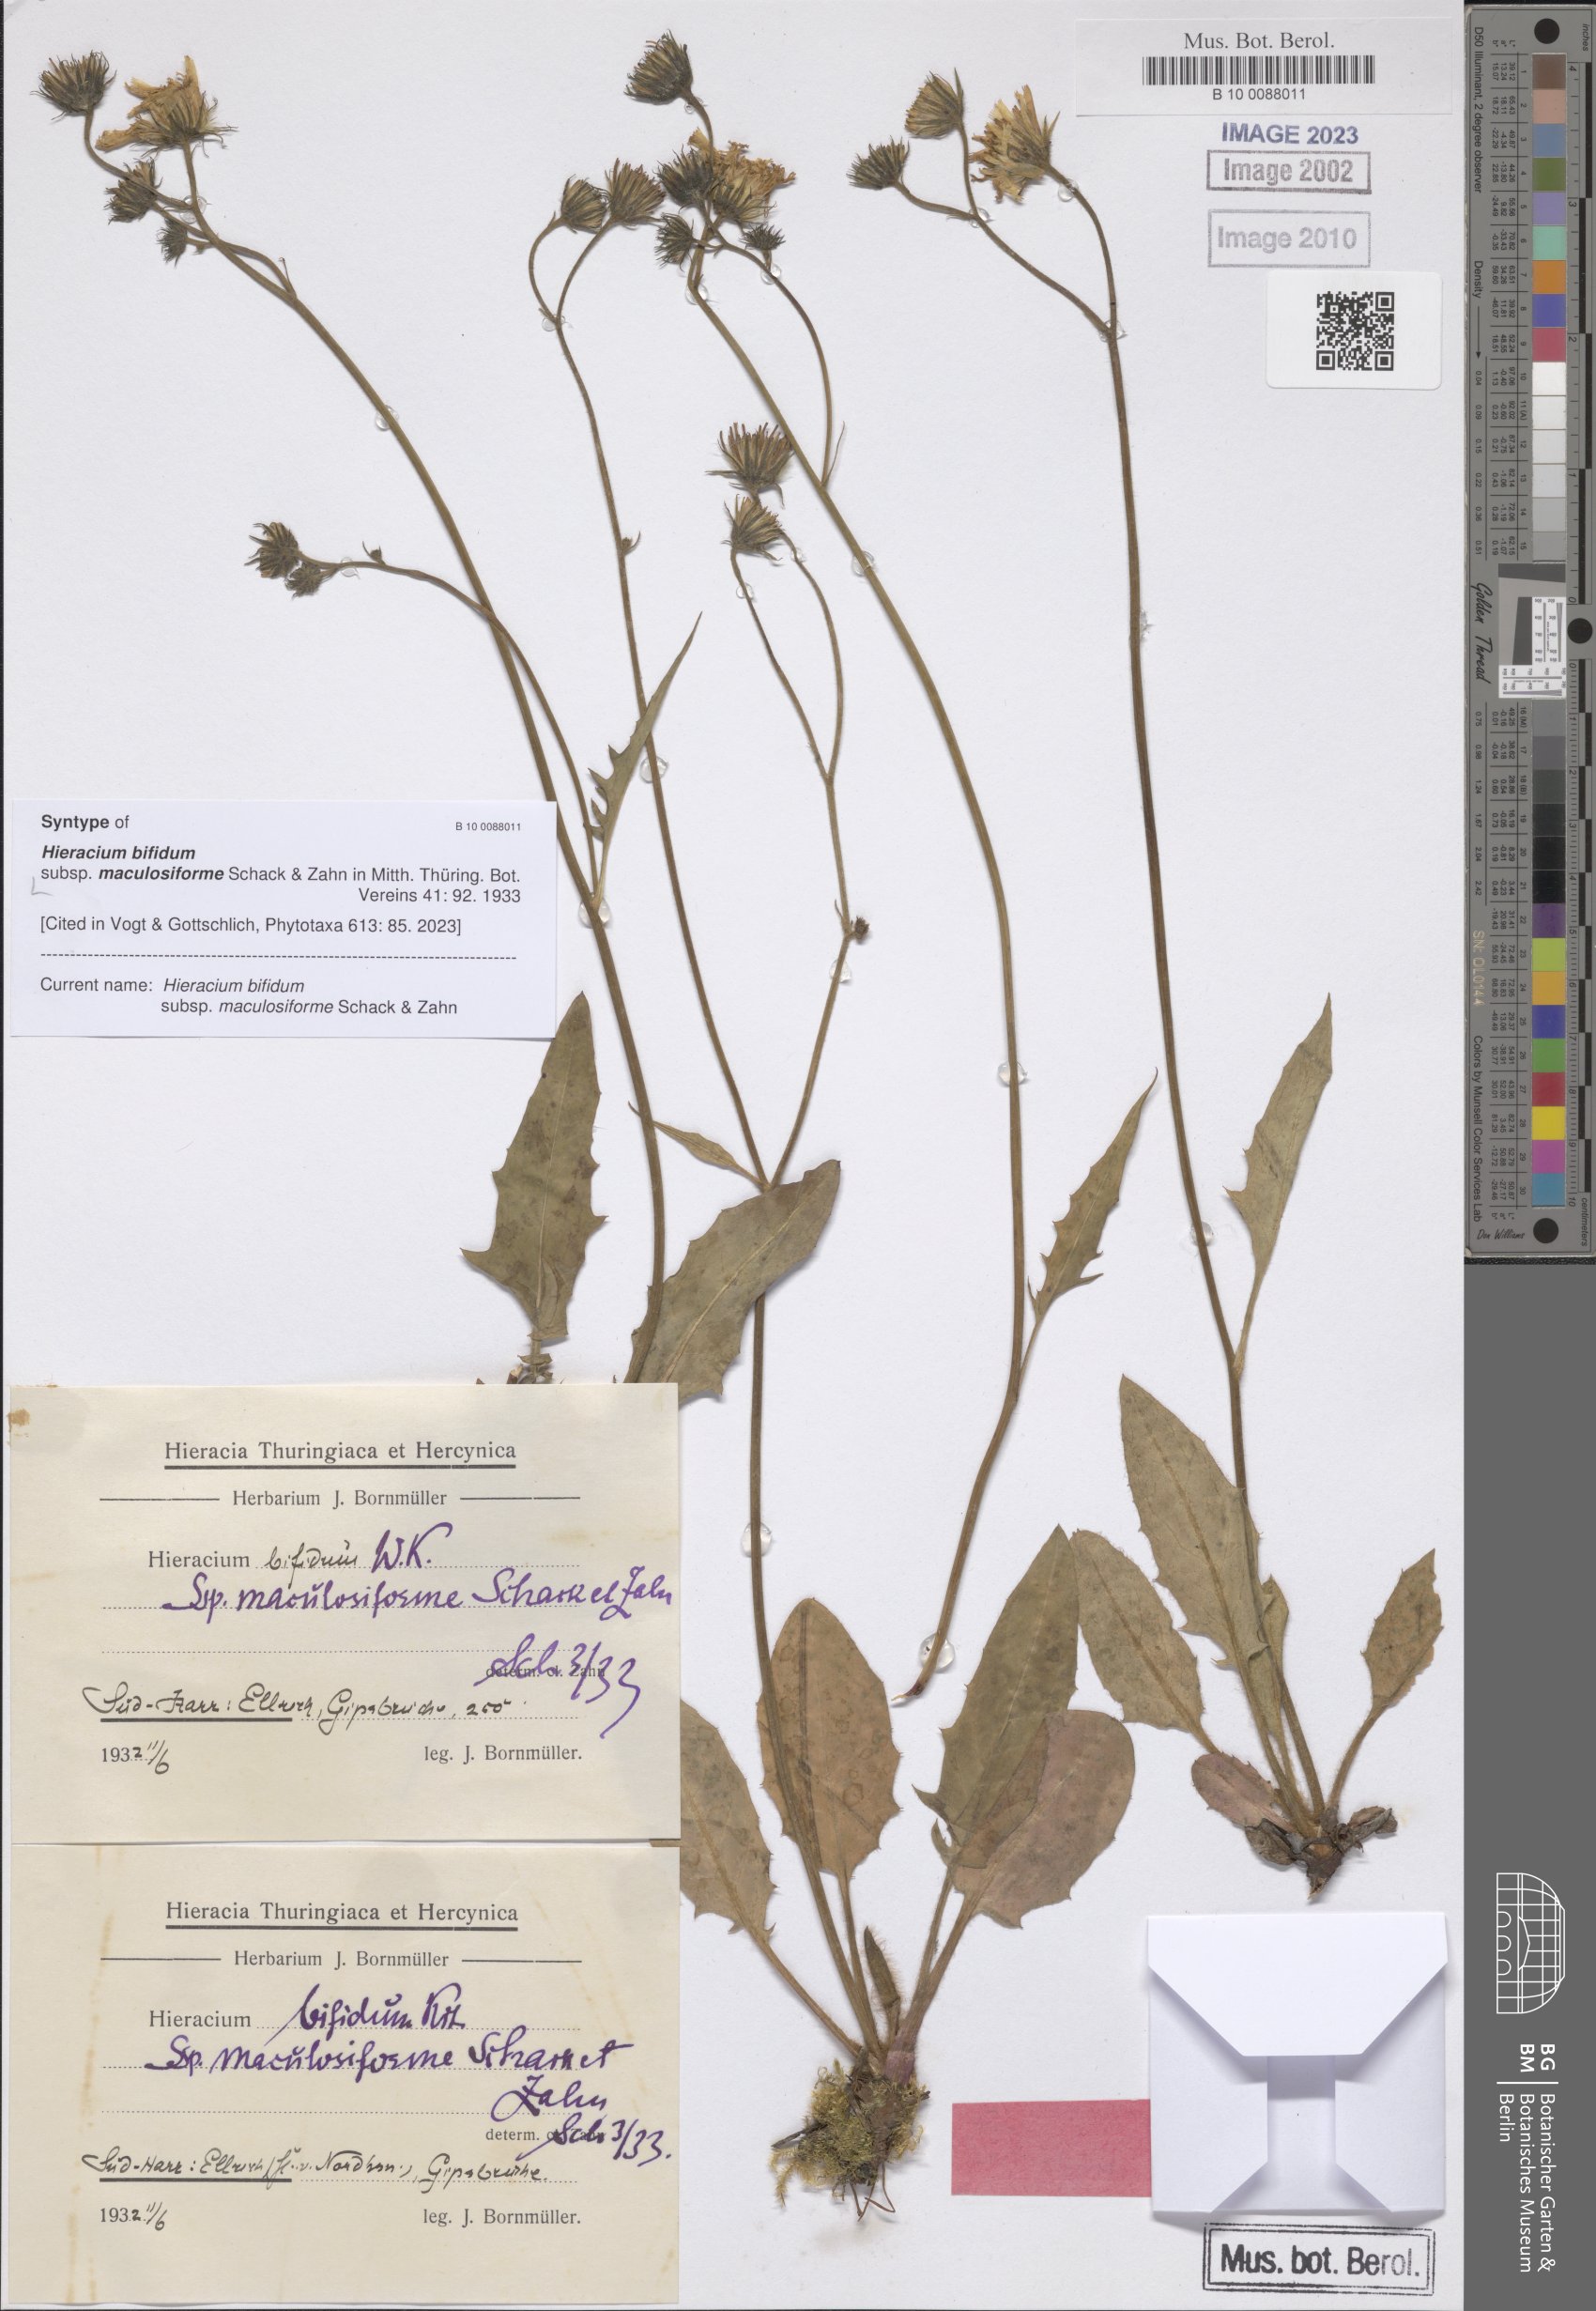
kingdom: Plantae
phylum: Tracheophyta
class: Magnoliopsida
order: Asterales
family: Asteraceae
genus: Hieracium
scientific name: Hieracium bifidum
